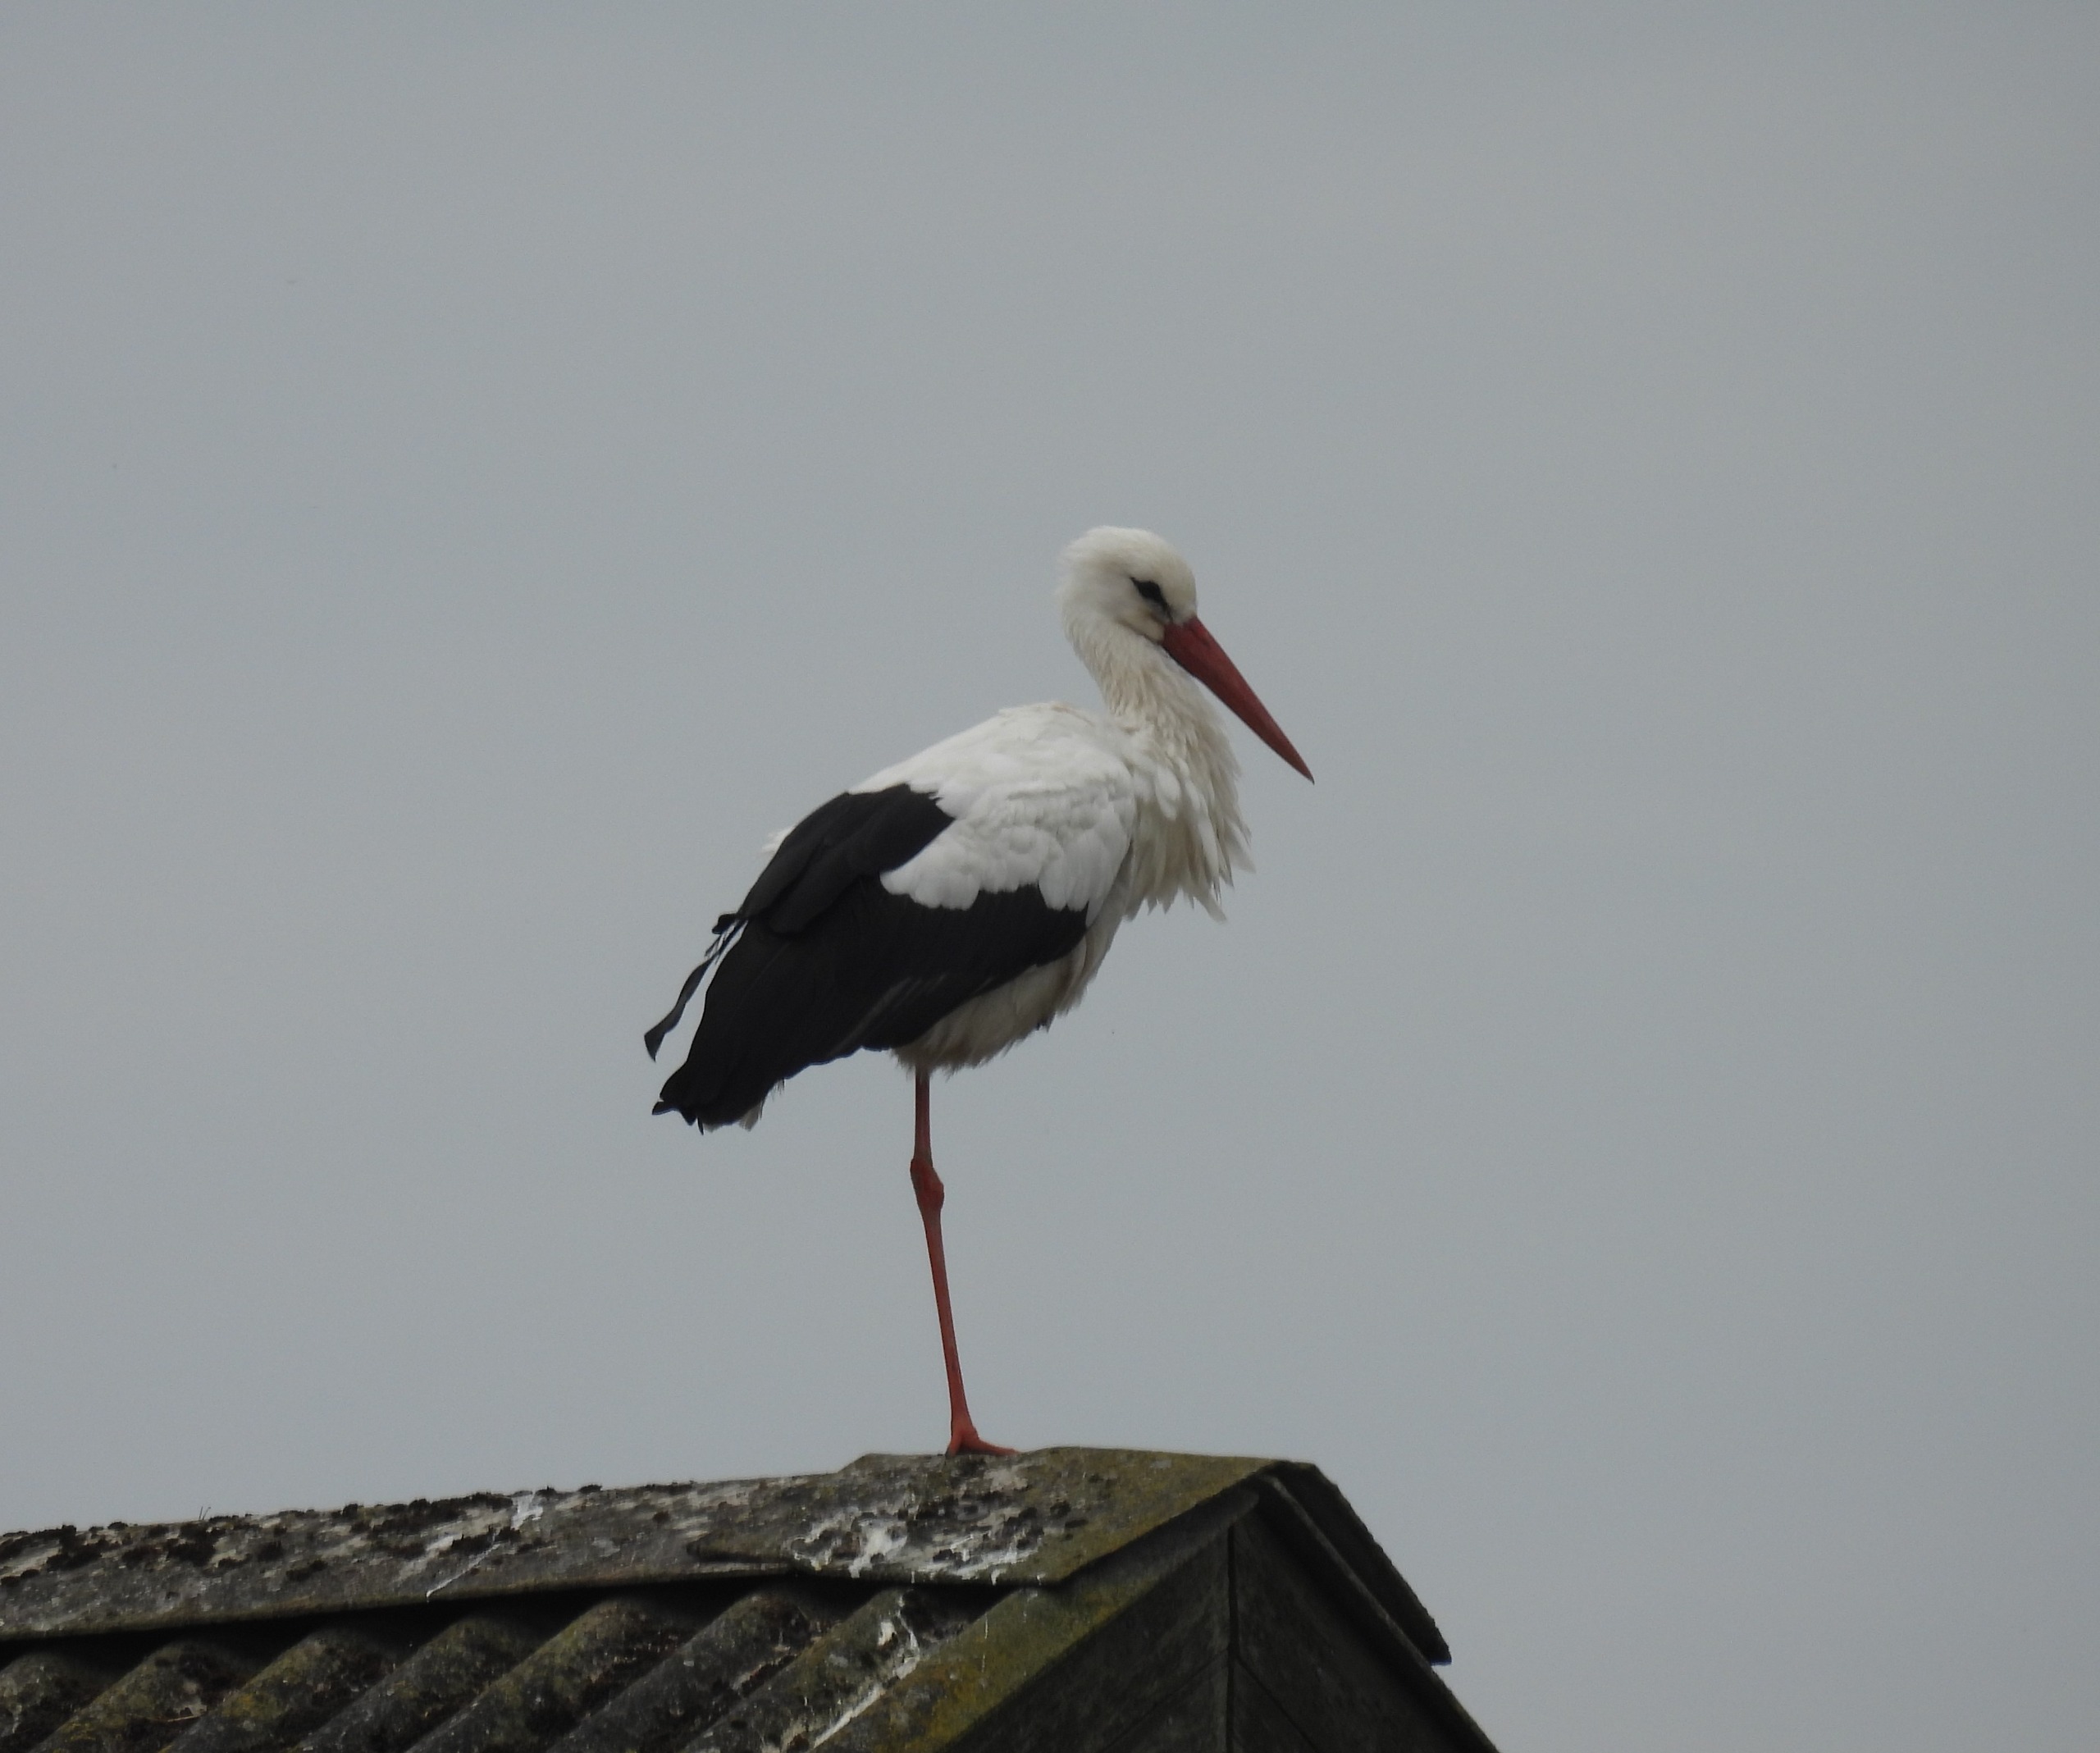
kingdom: Animalia
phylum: Chordata
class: Aves
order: Ciconiiformes
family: Ciconiidae
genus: Ciconia
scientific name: Ciconia ciconia
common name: Hvid stork
